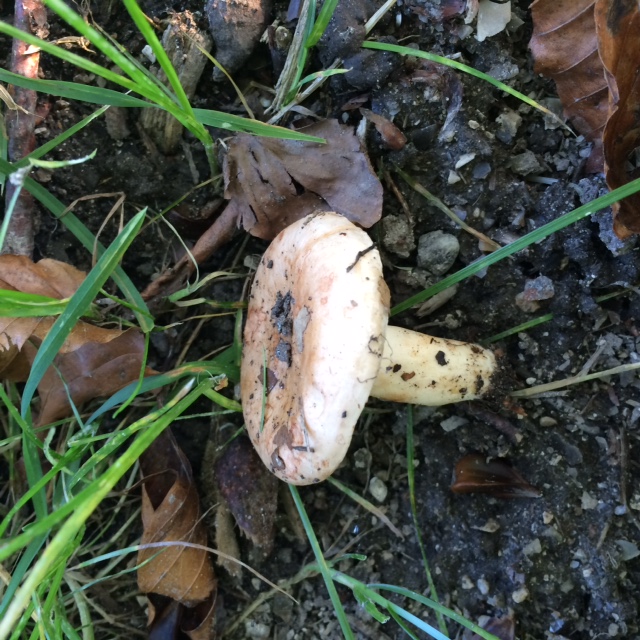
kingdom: Fungi
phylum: Basidiomycota
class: Agaricomycetes
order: Russulales
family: Russulaceae
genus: Lactarius
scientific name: Lactarius pallidus
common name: bleg mælkehat
